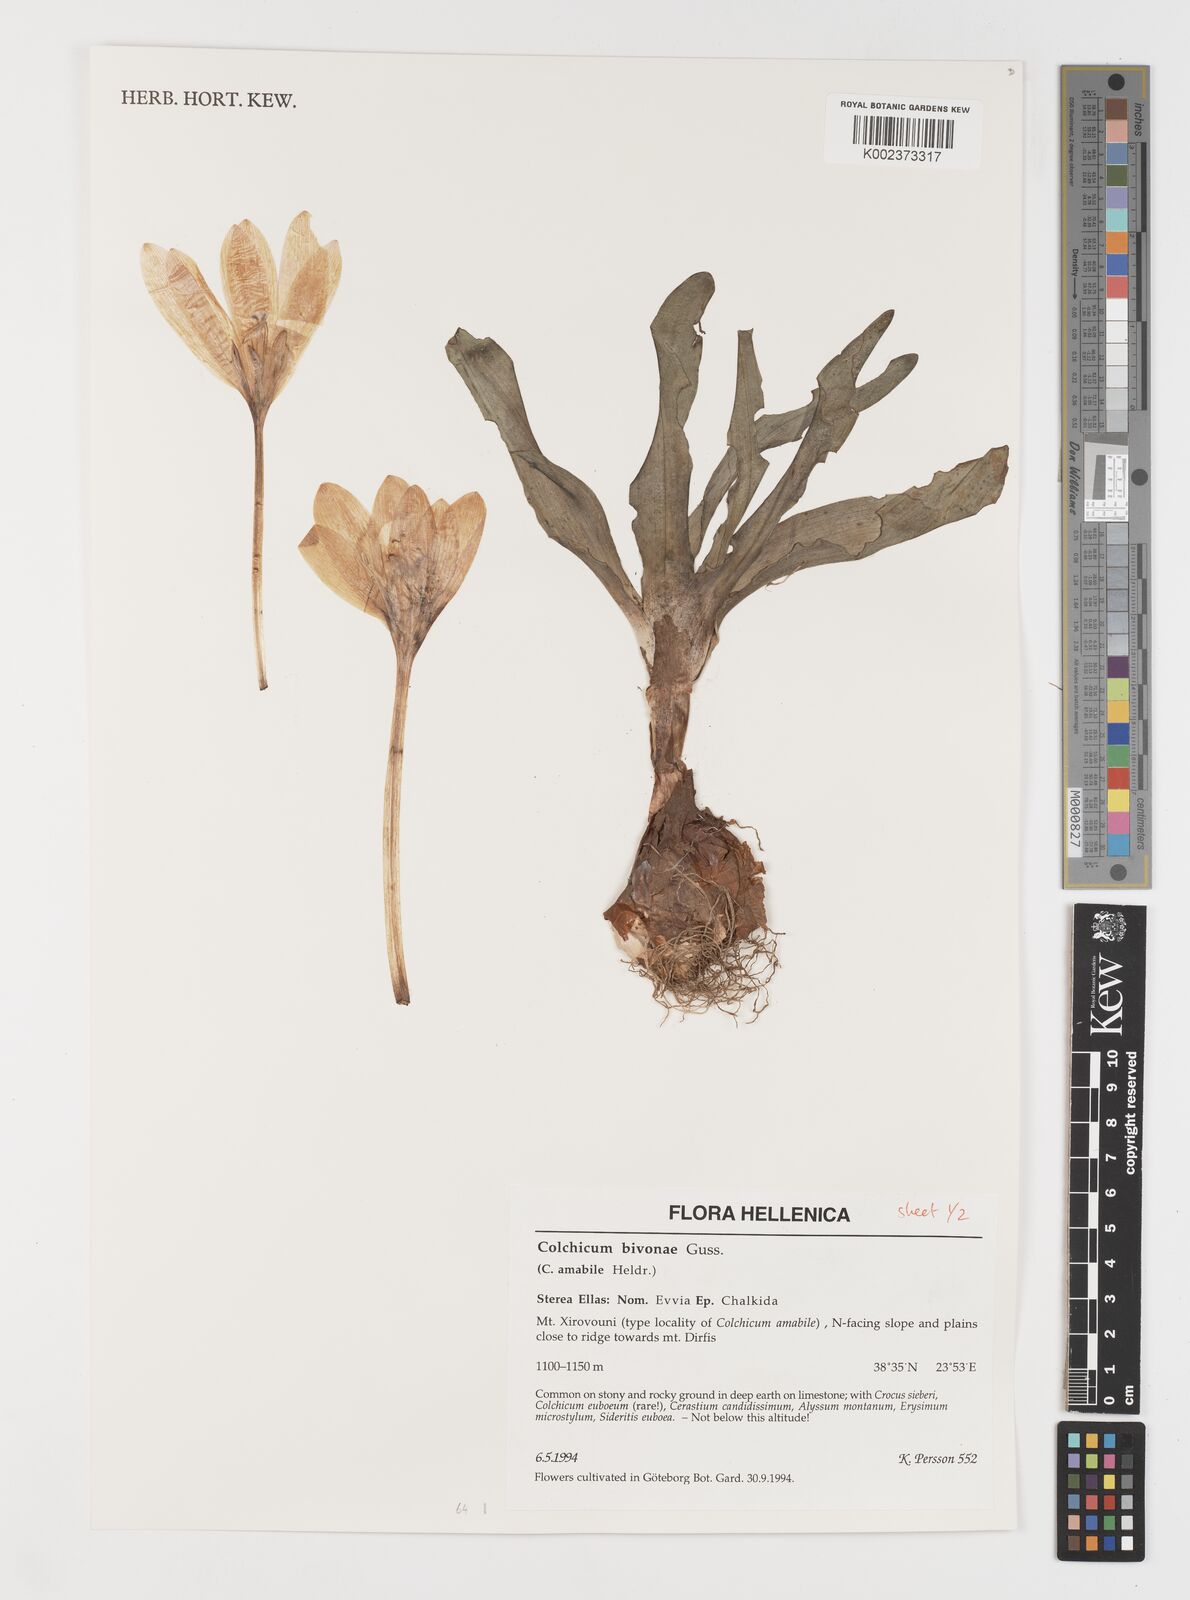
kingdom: Plantae
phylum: Tracheophyta
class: Liliopsida
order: Liliales
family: Colchicaceae
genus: Colchicum
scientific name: Colchicum bivonae
